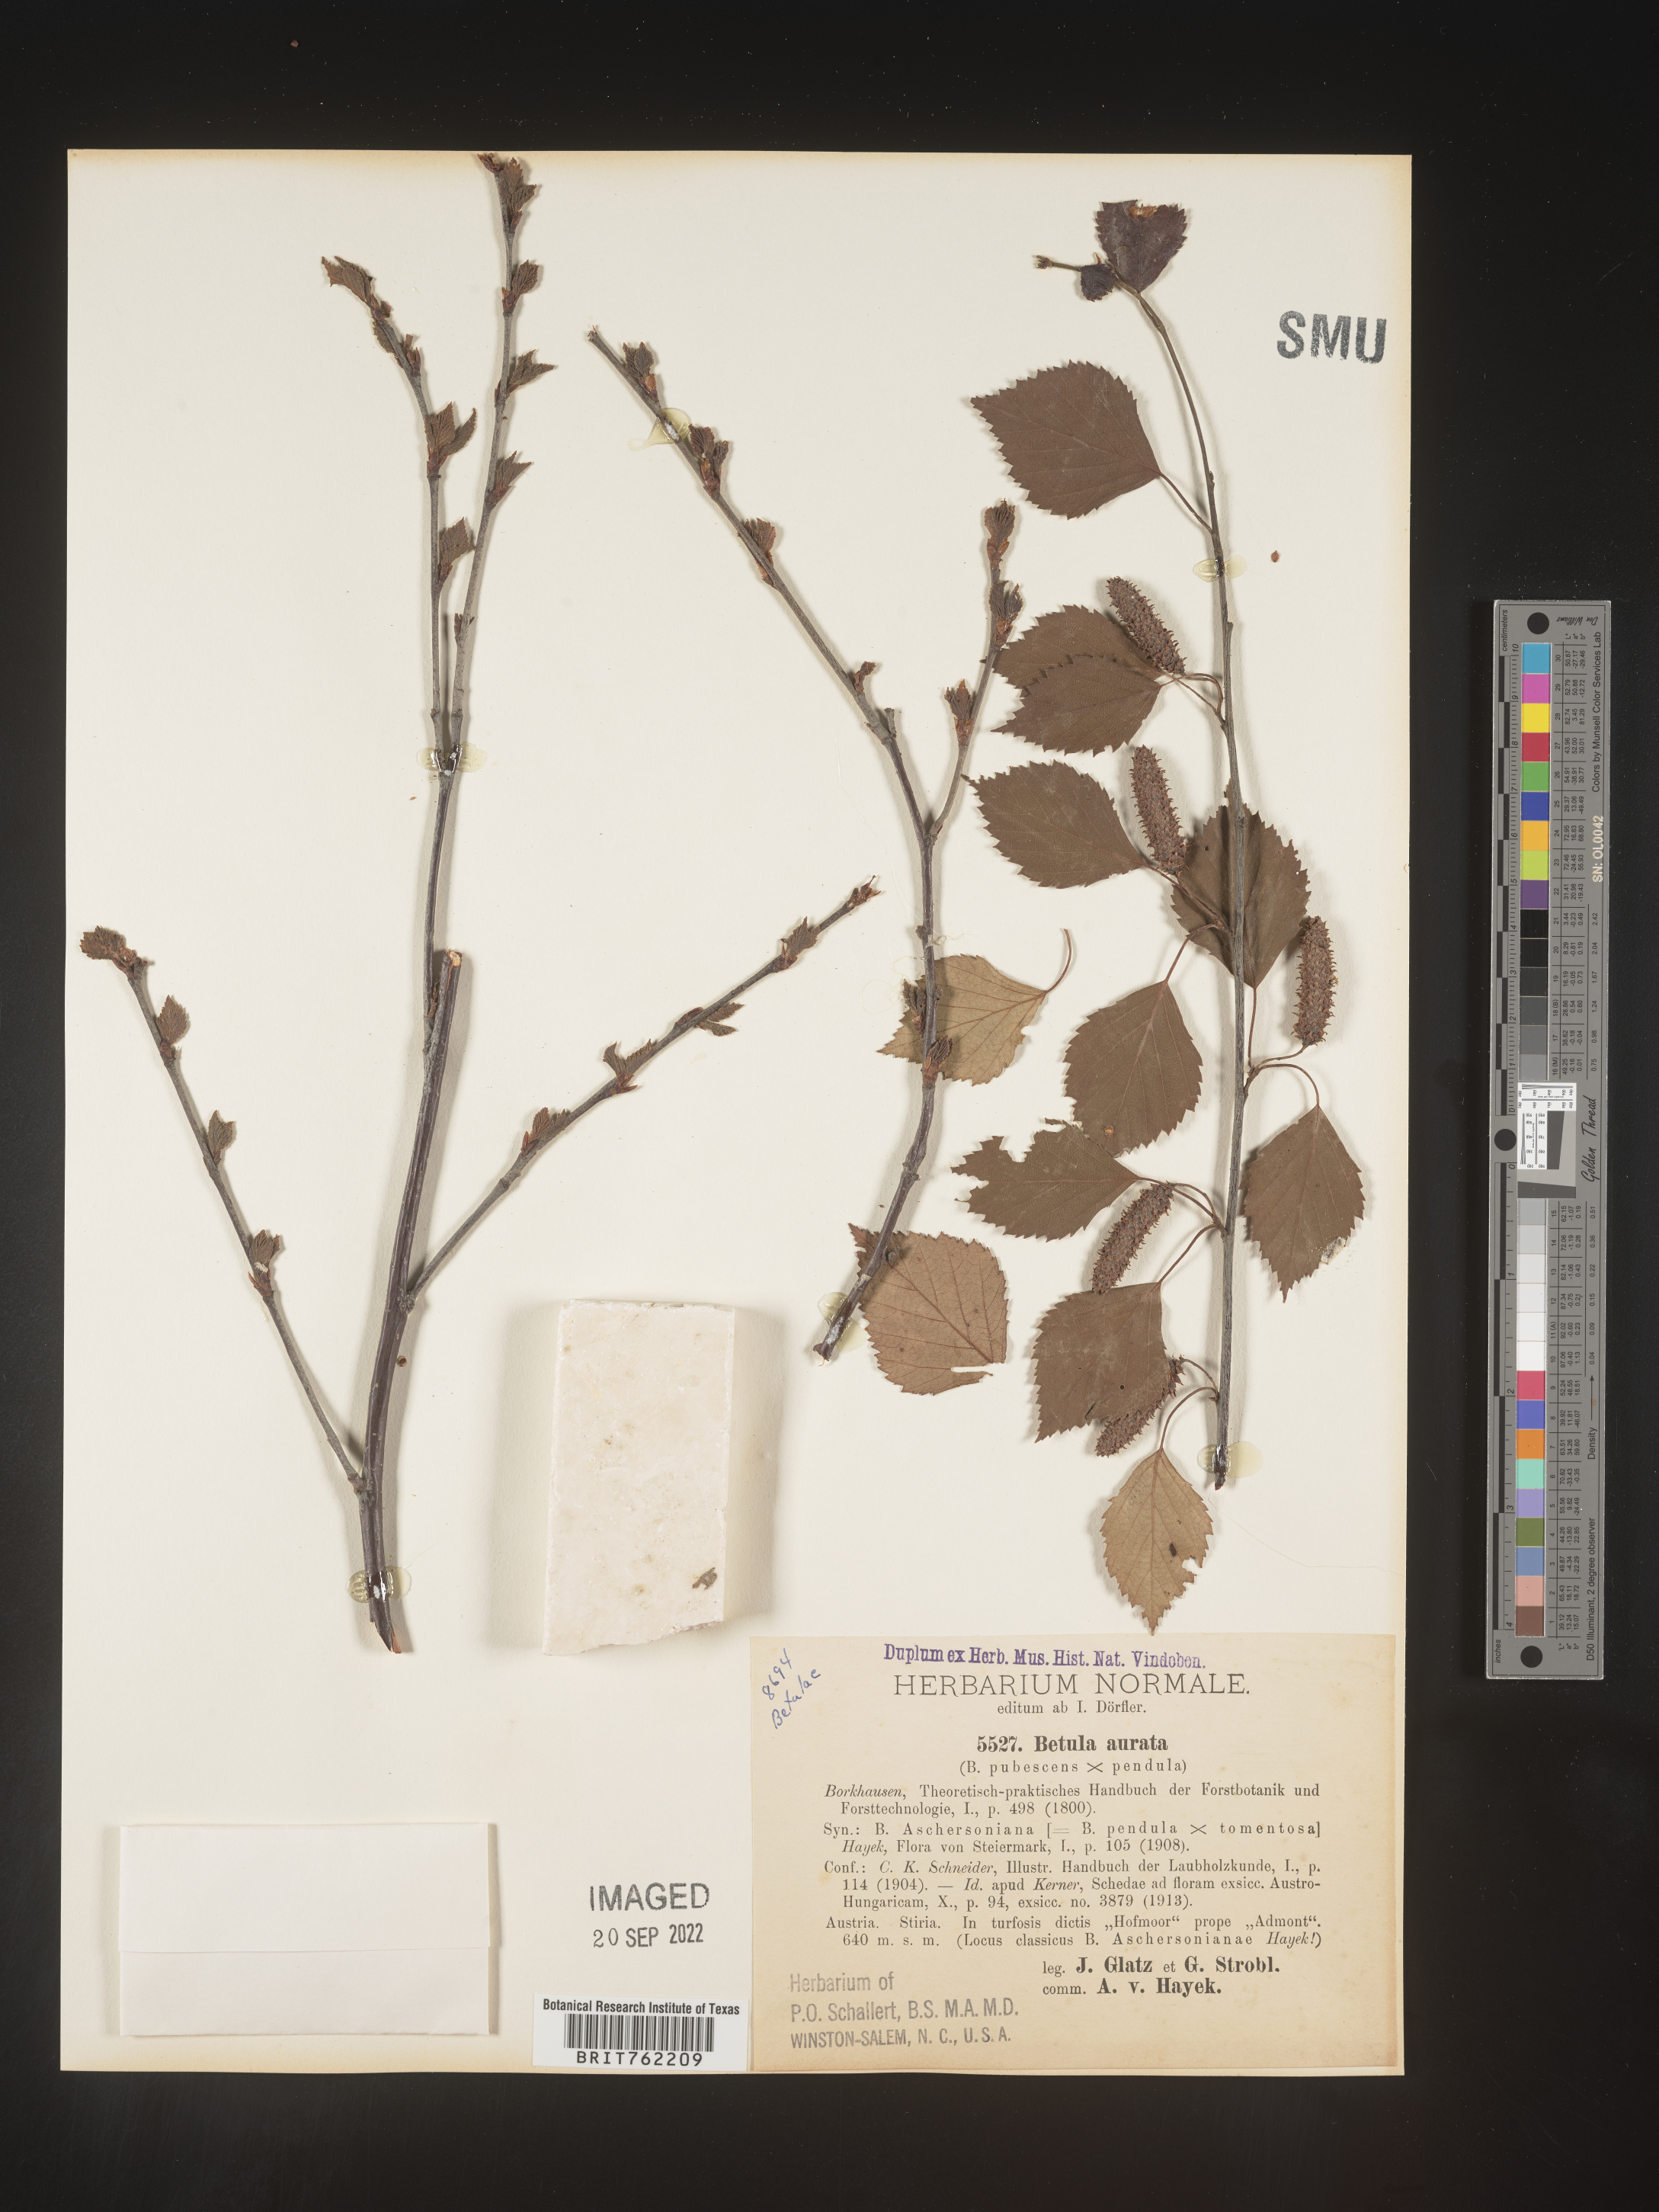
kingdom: Plantae
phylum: Tracheophyta
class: Magnoliopsida
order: Fagales
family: Betulaceae
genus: Betula
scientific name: Betula
